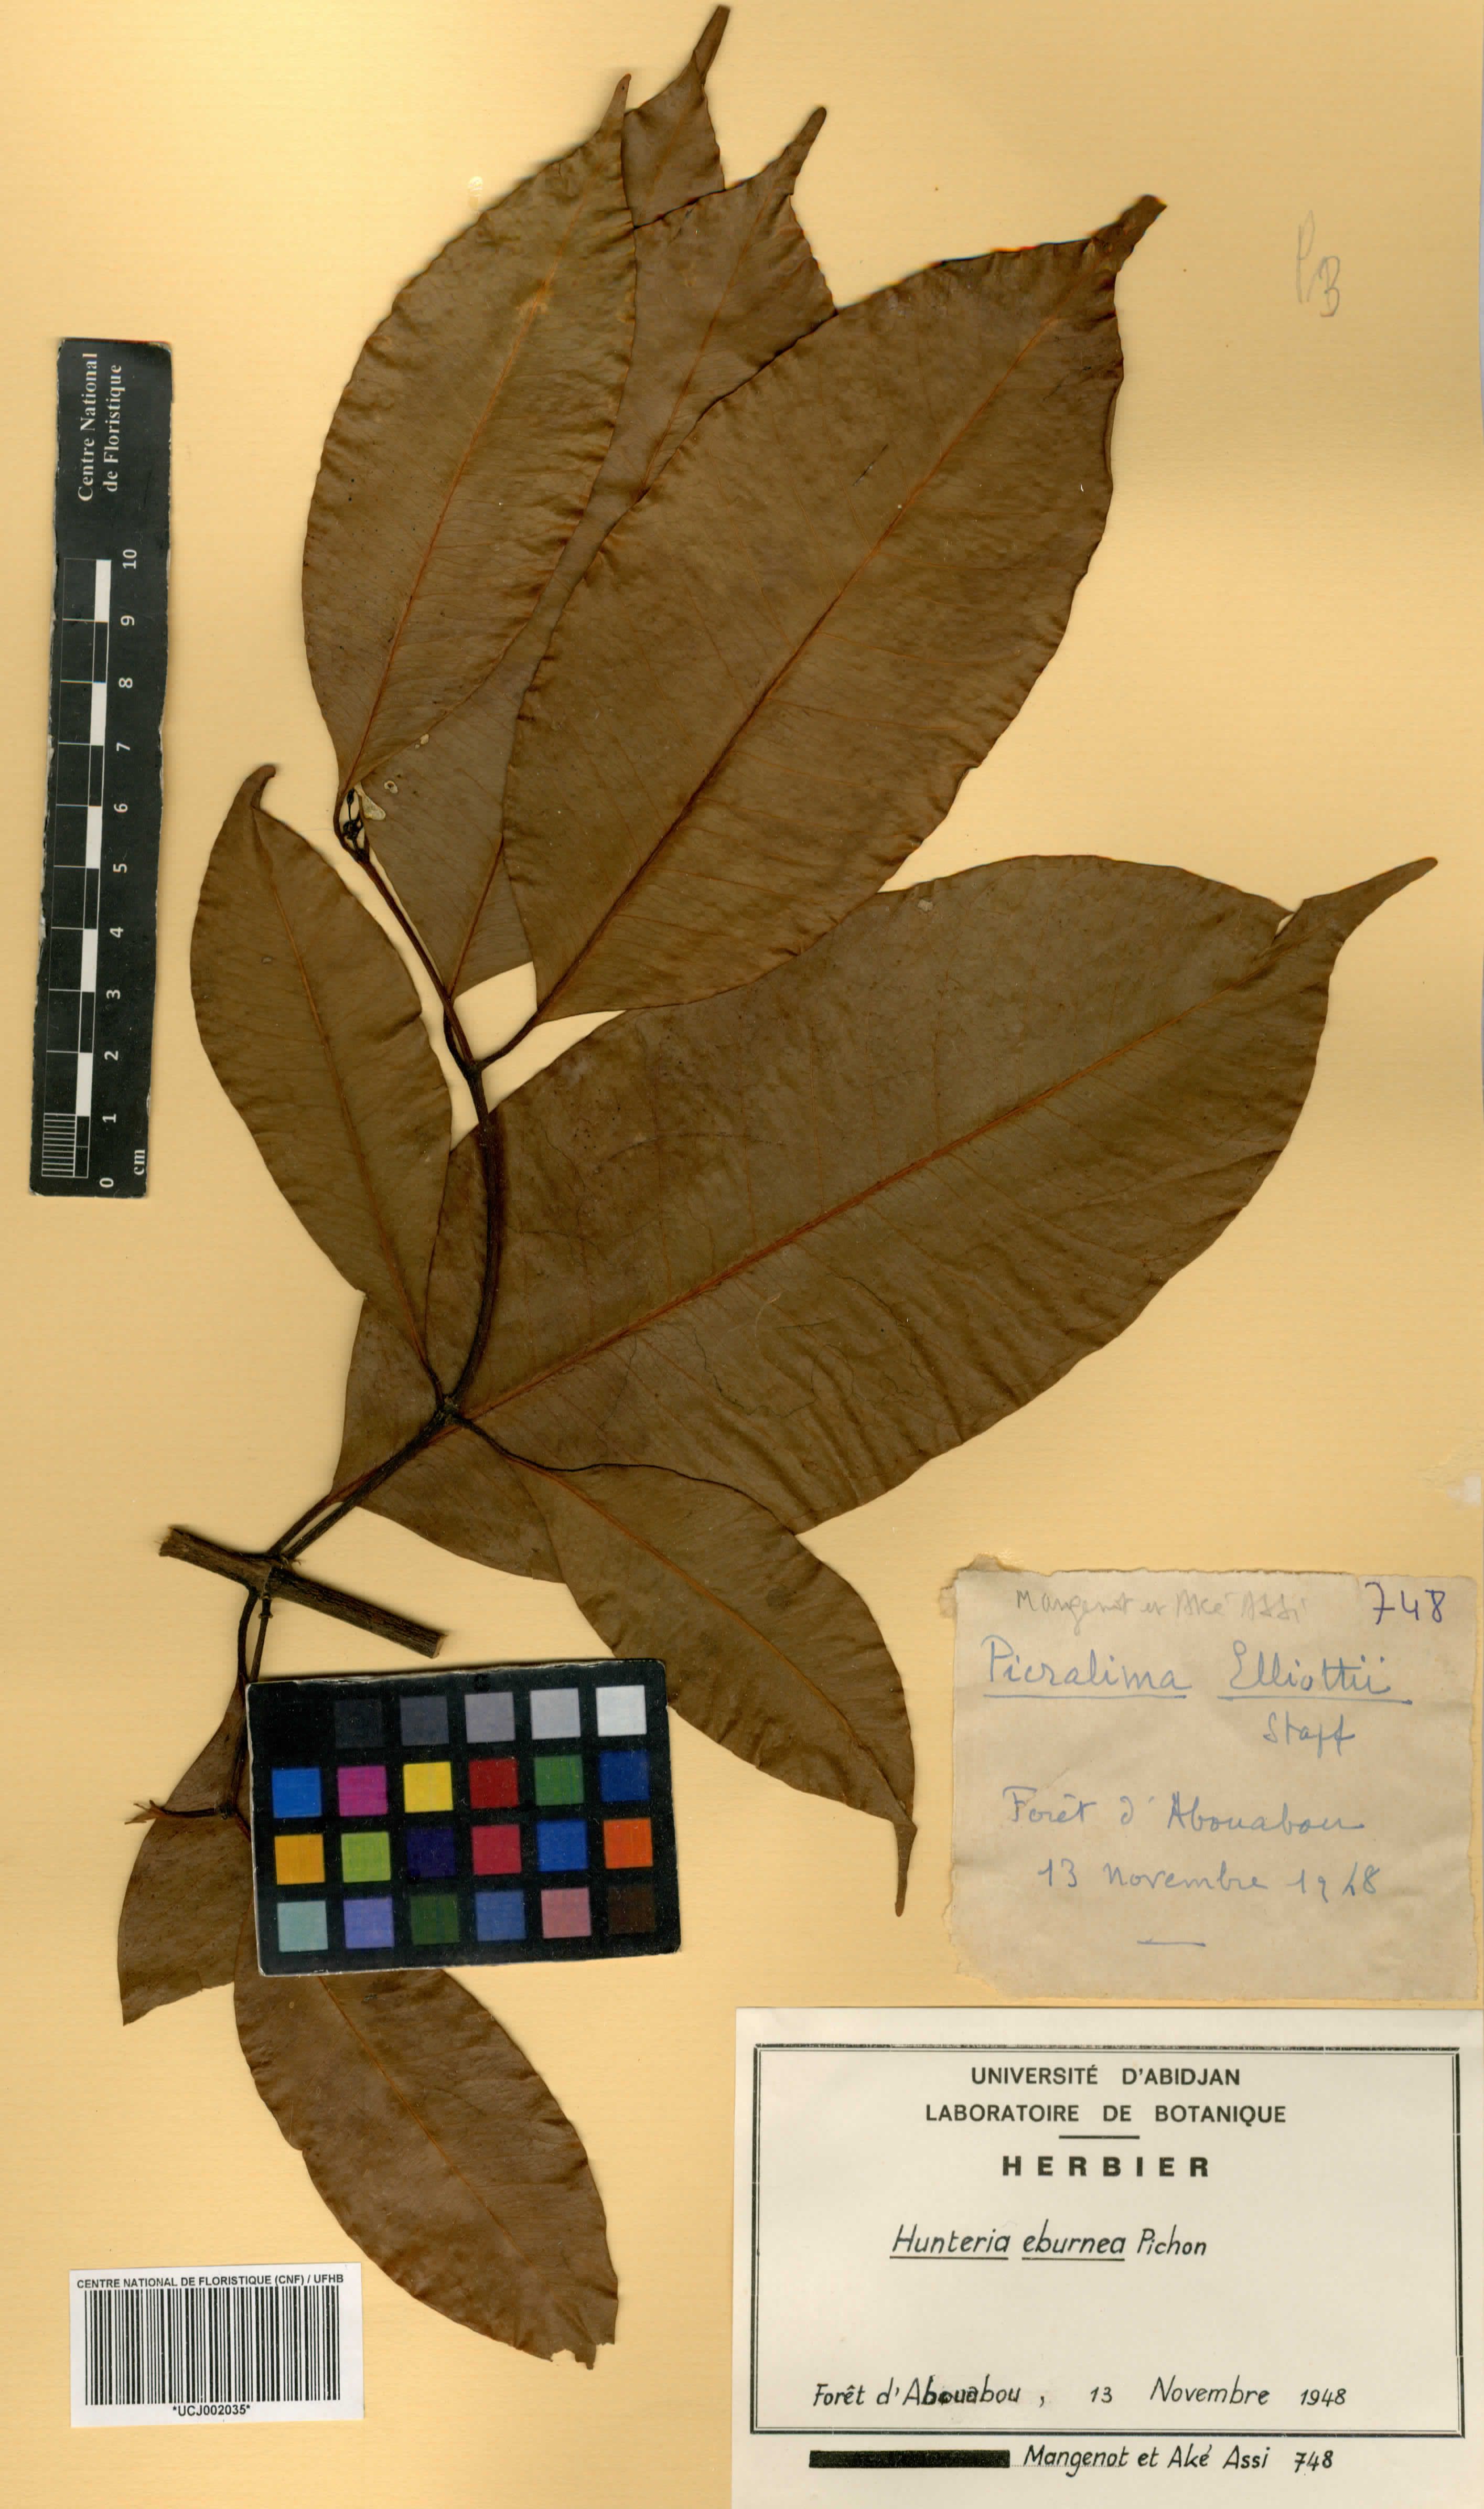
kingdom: Plantae
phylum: Tracheophyta
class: Magnoliopsida
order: Gentianales
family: Apocynaceae
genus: Hunteria
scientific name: Hunteria umbellata
